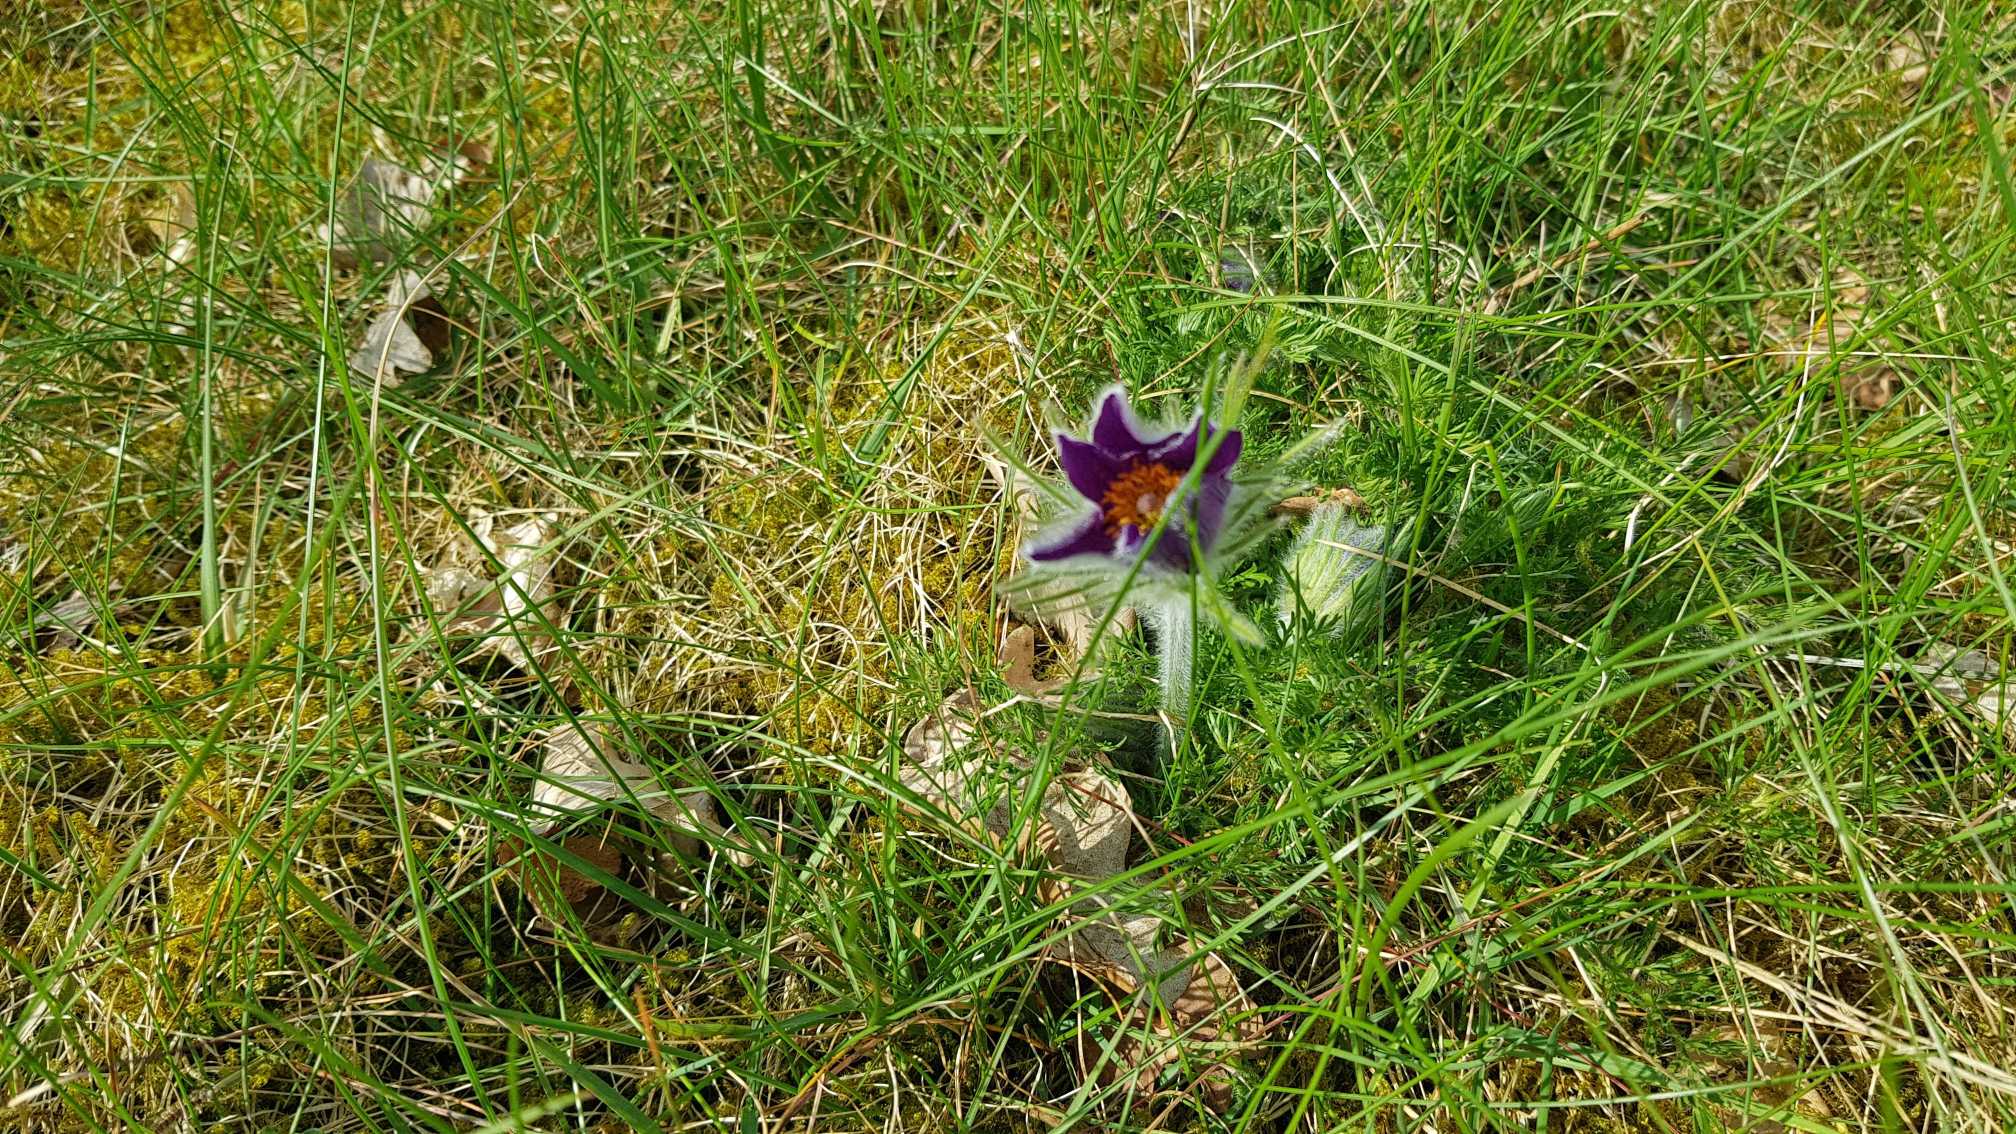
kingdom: Plantae
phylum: Tracheophyta
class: Magnoliopsida
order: Ranunculales
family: Ranunculaceae
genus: Pulsatilla
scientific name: Pulsatilla vulgaris
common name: Opret kobjælde
